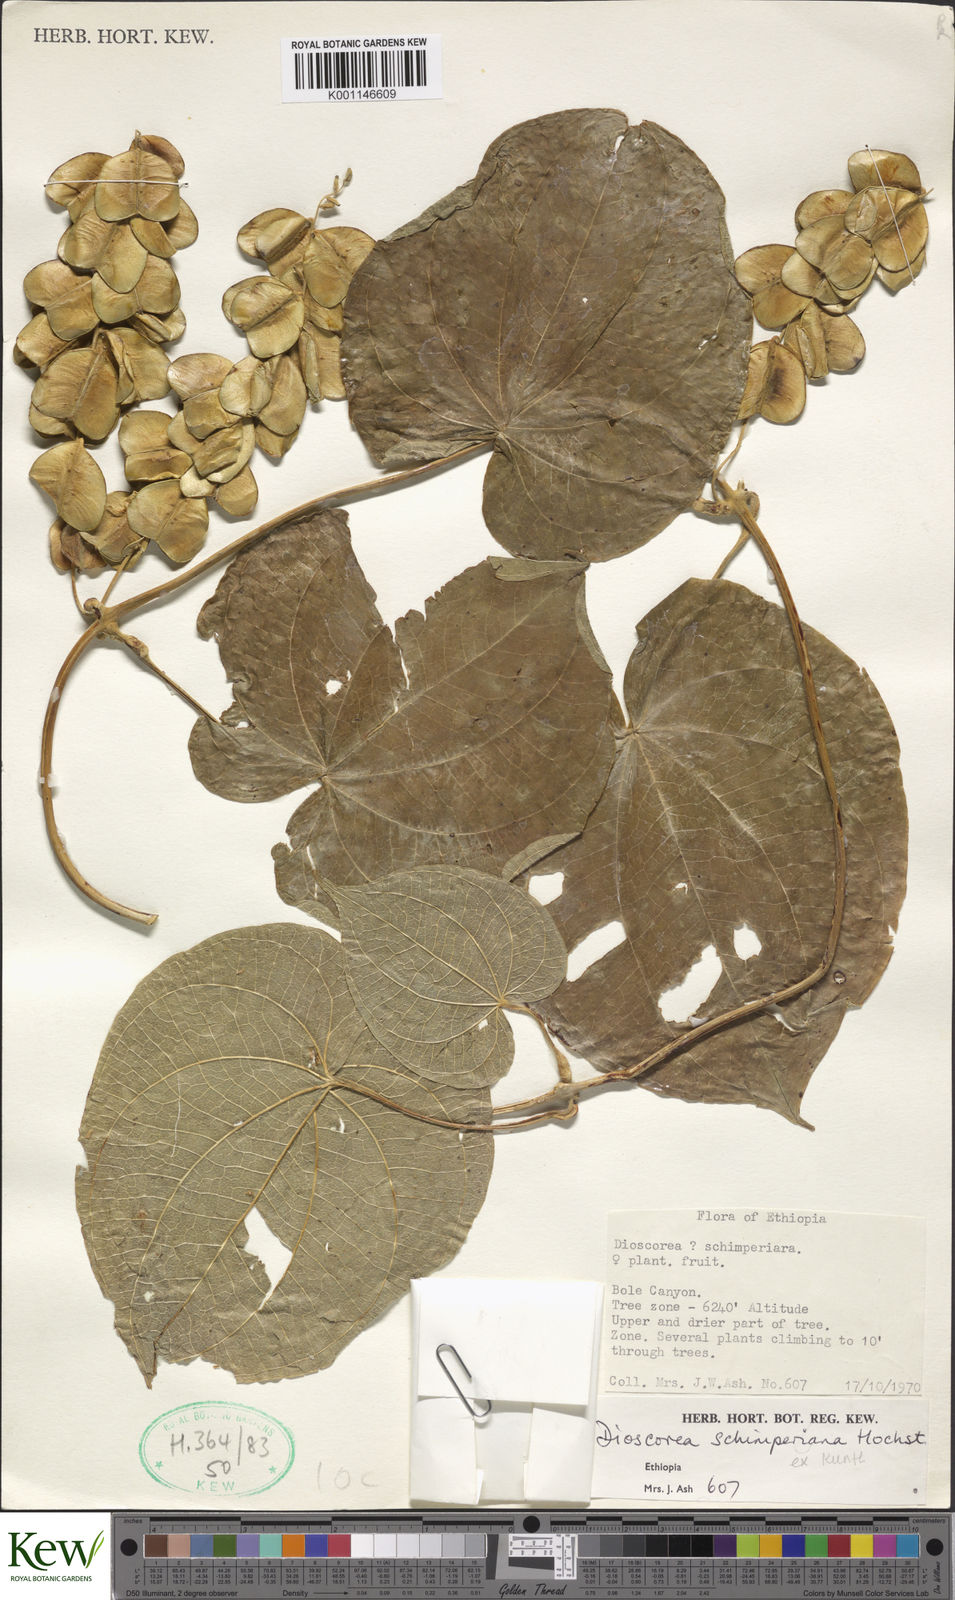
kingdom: Plantae
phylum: Tracheophyta
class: Liliopsida
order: Dioscoreales
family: Dioscoreaceae
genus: Dioscorea
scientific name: Dioscorea schimperiana
